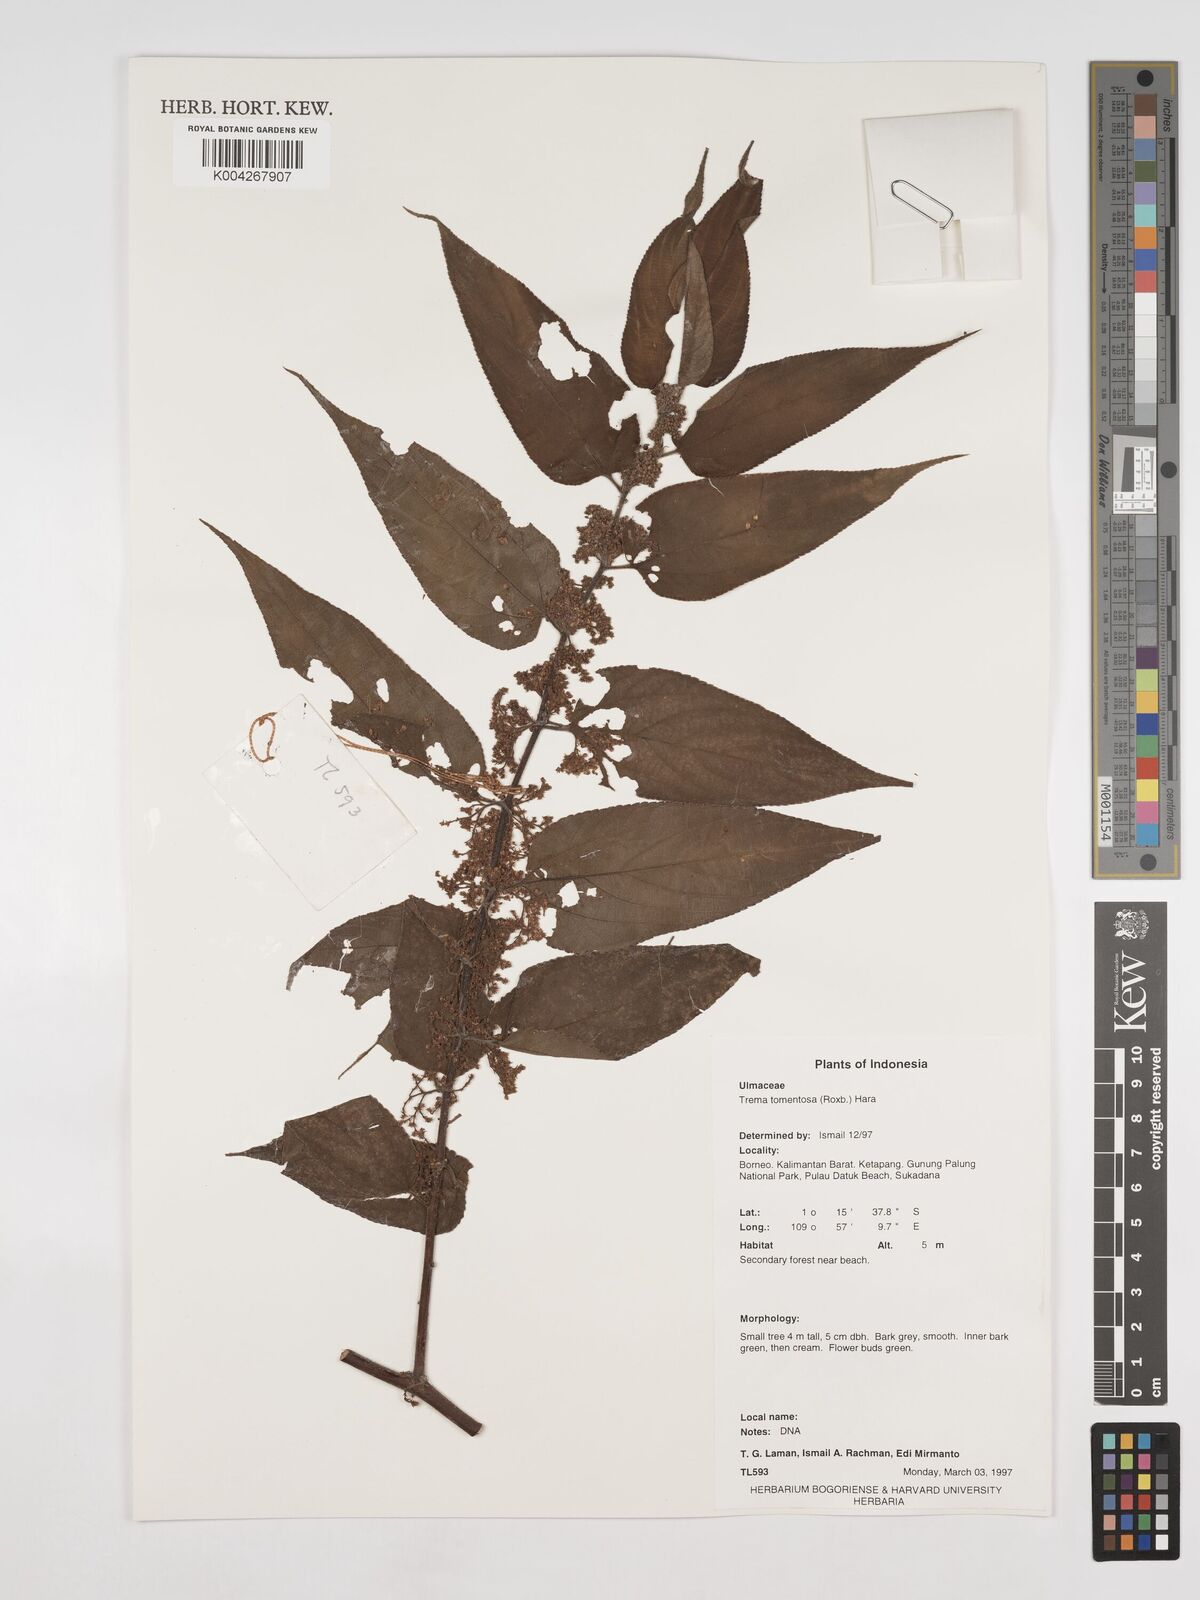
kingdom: Plantae
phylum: Tracheophyta
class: Magnoliopsida
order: Rosales
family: Cannabaceae
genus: Trema
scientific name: Trema tomentosum
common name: Peach-leaf-poisonbush
